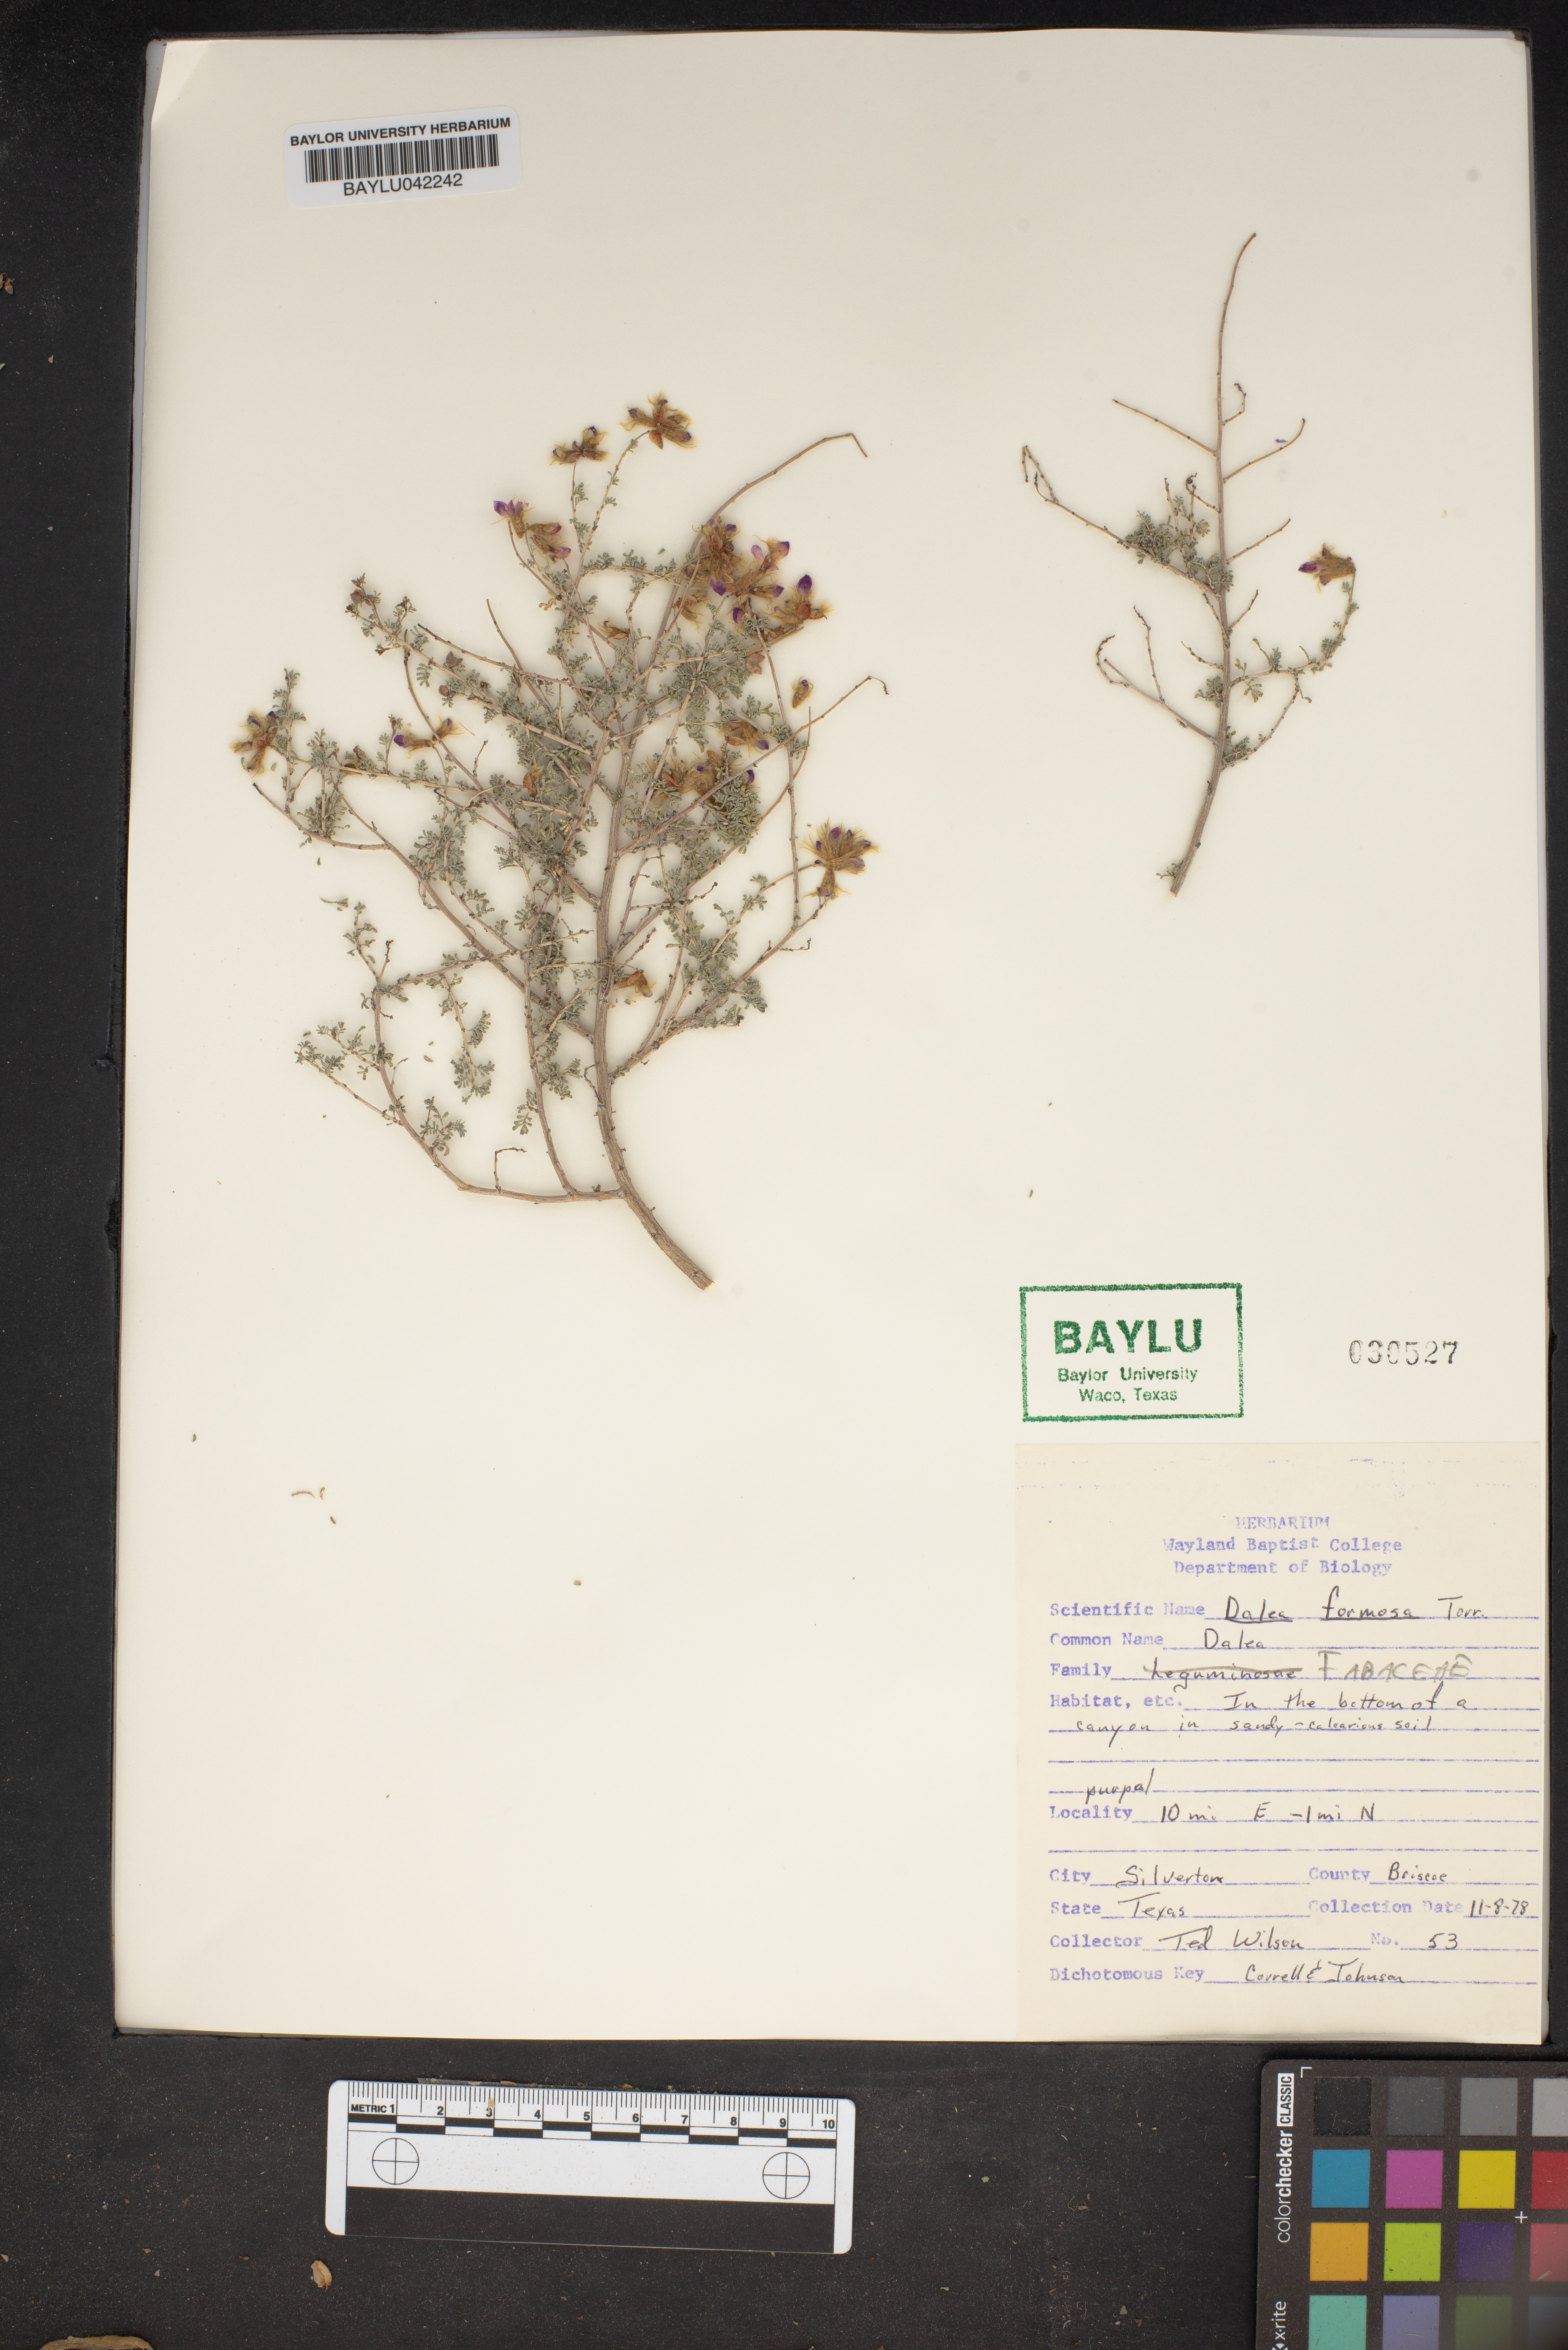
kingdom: Plantae
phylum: Tracheophyta
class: Magnoliopsida
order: Fabales
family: Fabaceae
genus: Dalea
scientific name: Dalea formosa
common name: Feather-plume dalea
